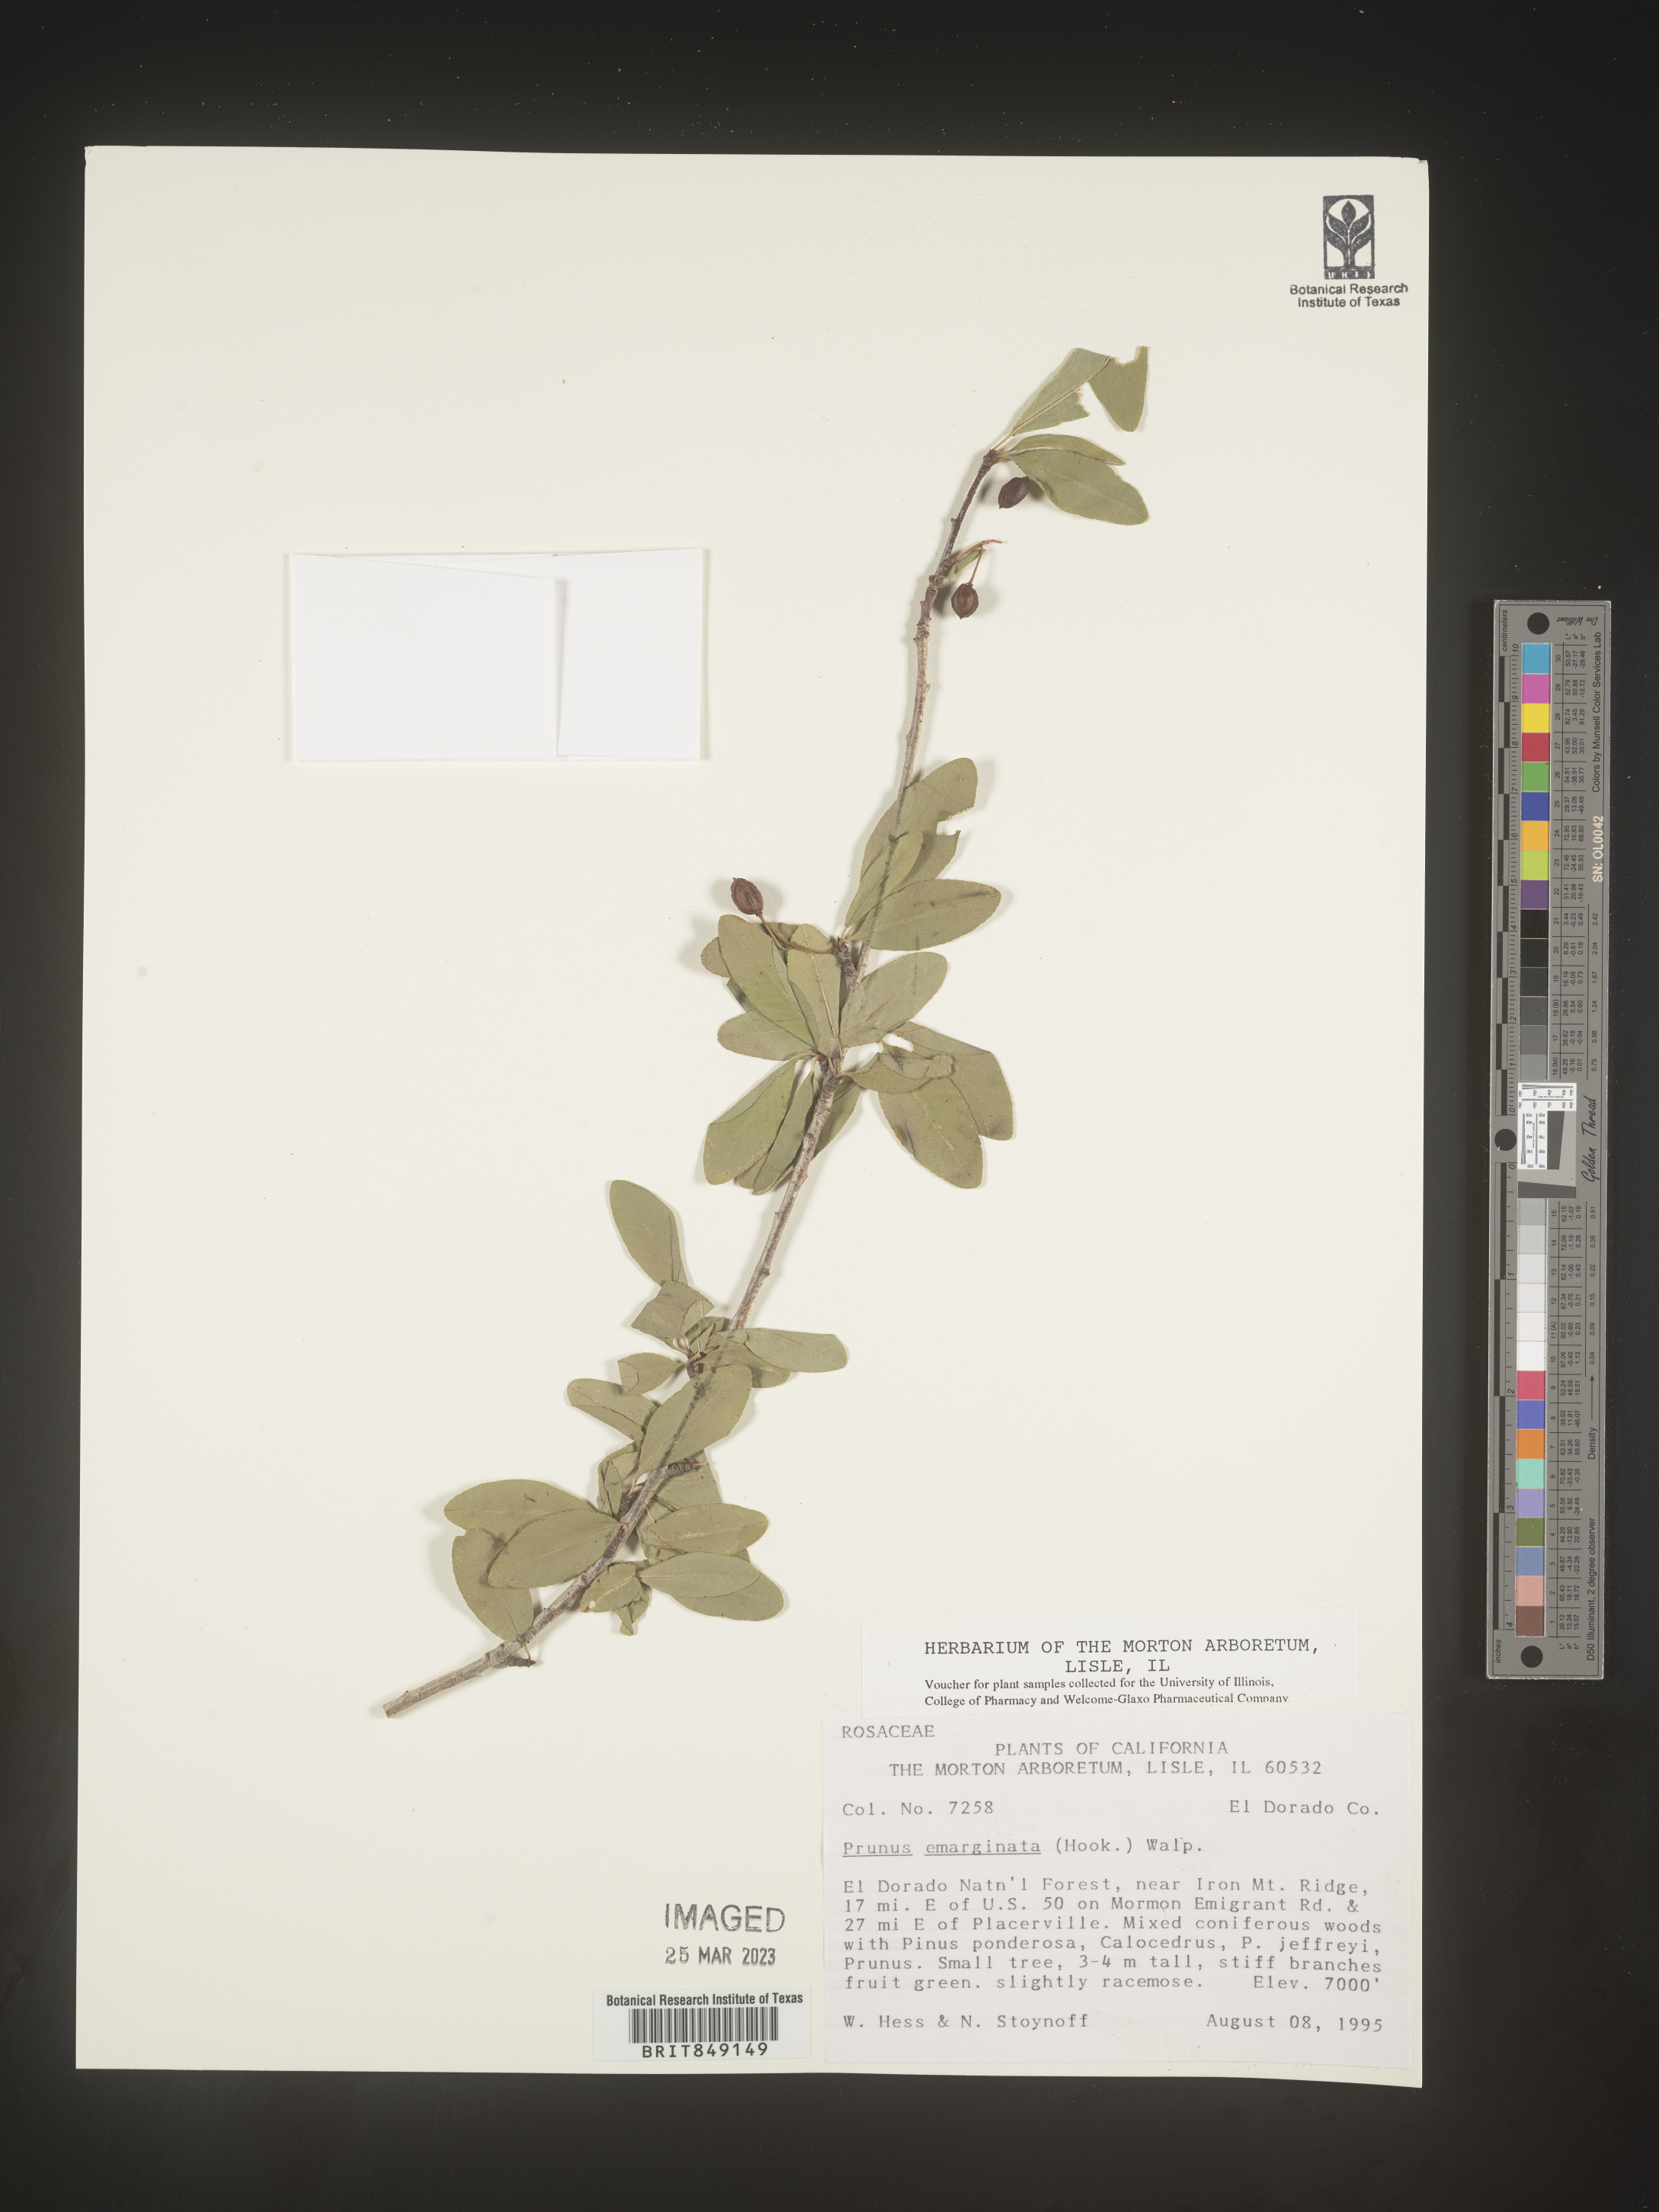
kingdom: Plantae
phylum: Tracheophyta
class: Magnoliopsida
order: Rosales
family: Rosaceae
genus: Prunus
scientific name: Prunus emarginata
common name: Bitter cherry
